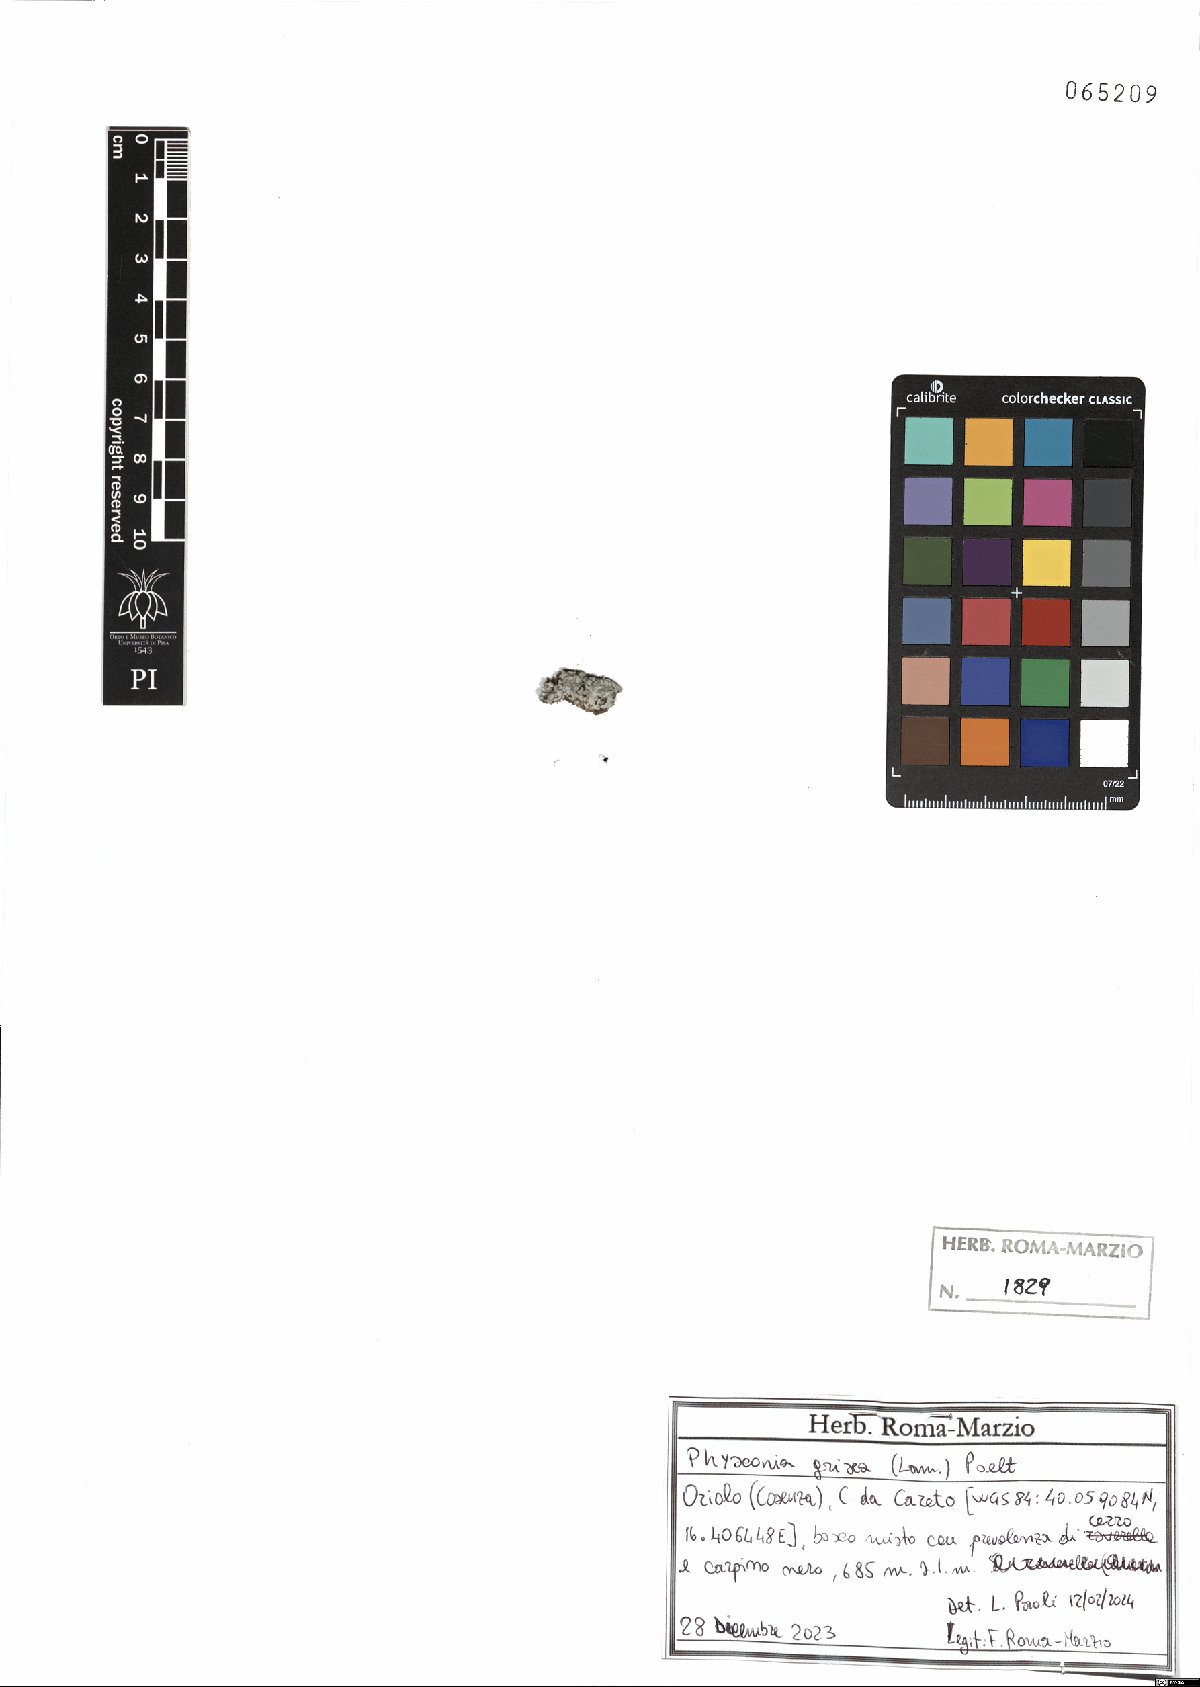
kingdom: Fungi
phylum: Ascomycota
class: Lecanoromycetes
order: Caliciales
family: Physciaceae
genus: Poeltonia
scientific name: Poeltonia grisea
